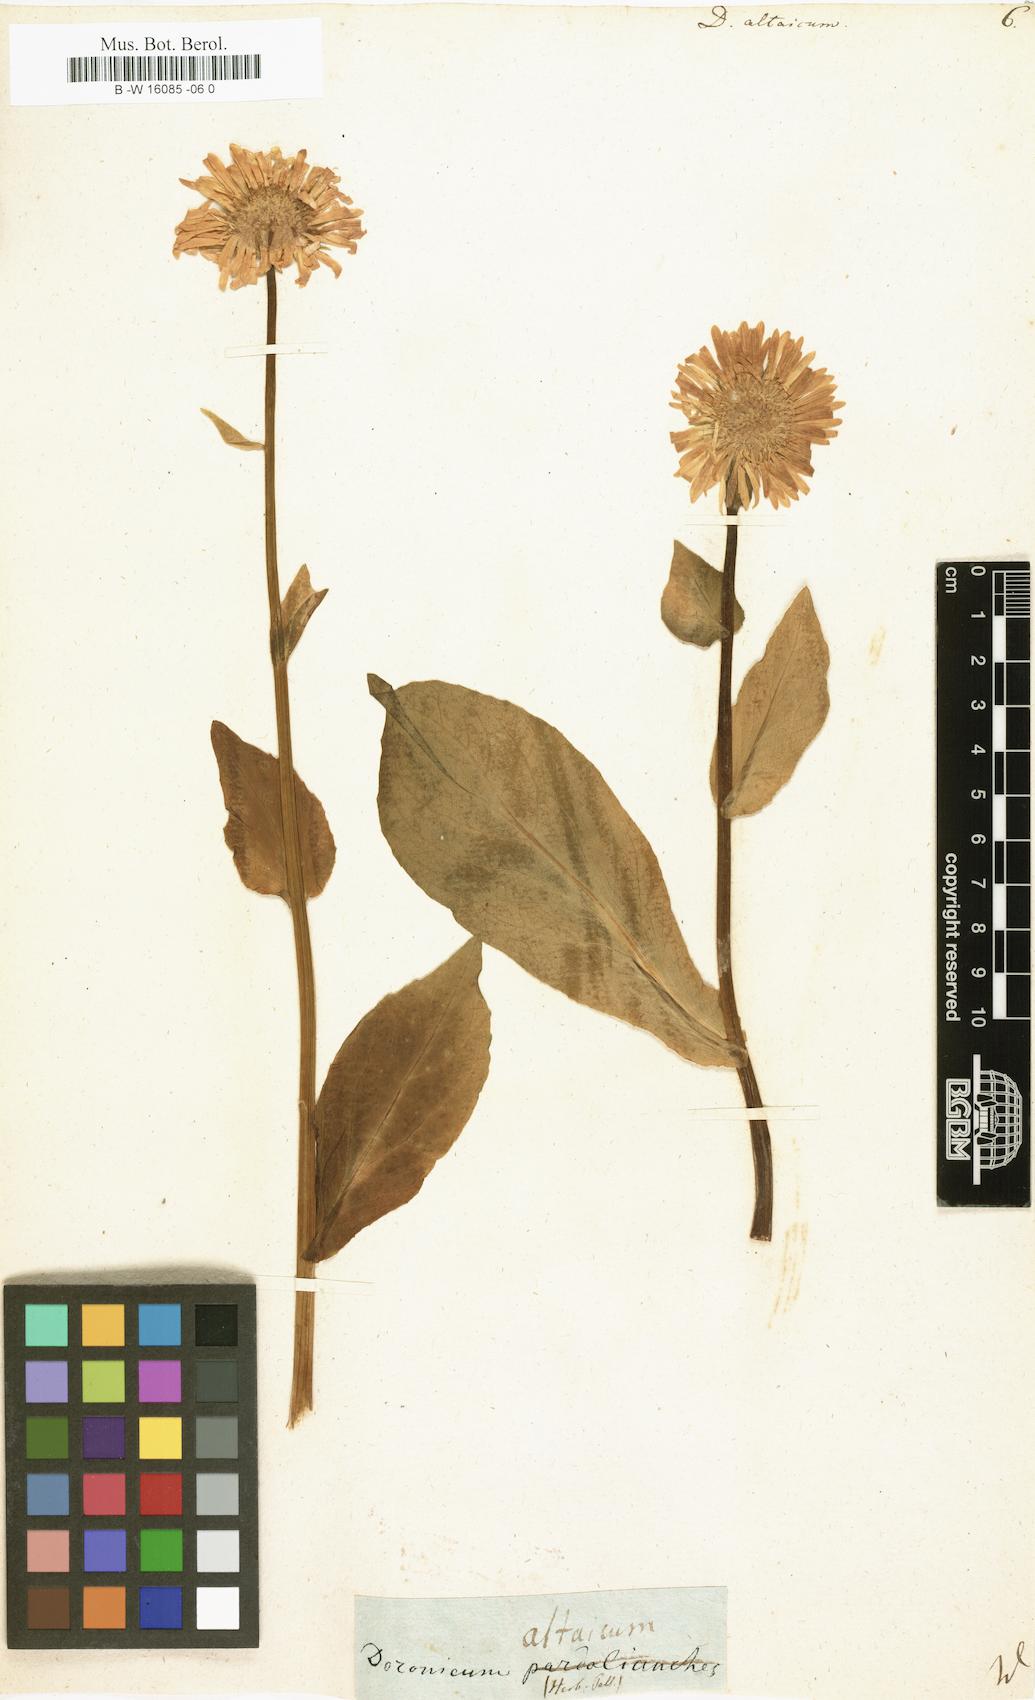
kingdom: Plantae
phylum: Tracheophyta
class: Magnoliopsida
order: Asterales
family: Asteraceae
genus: Doronicum
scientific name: Doronicum altaicum
